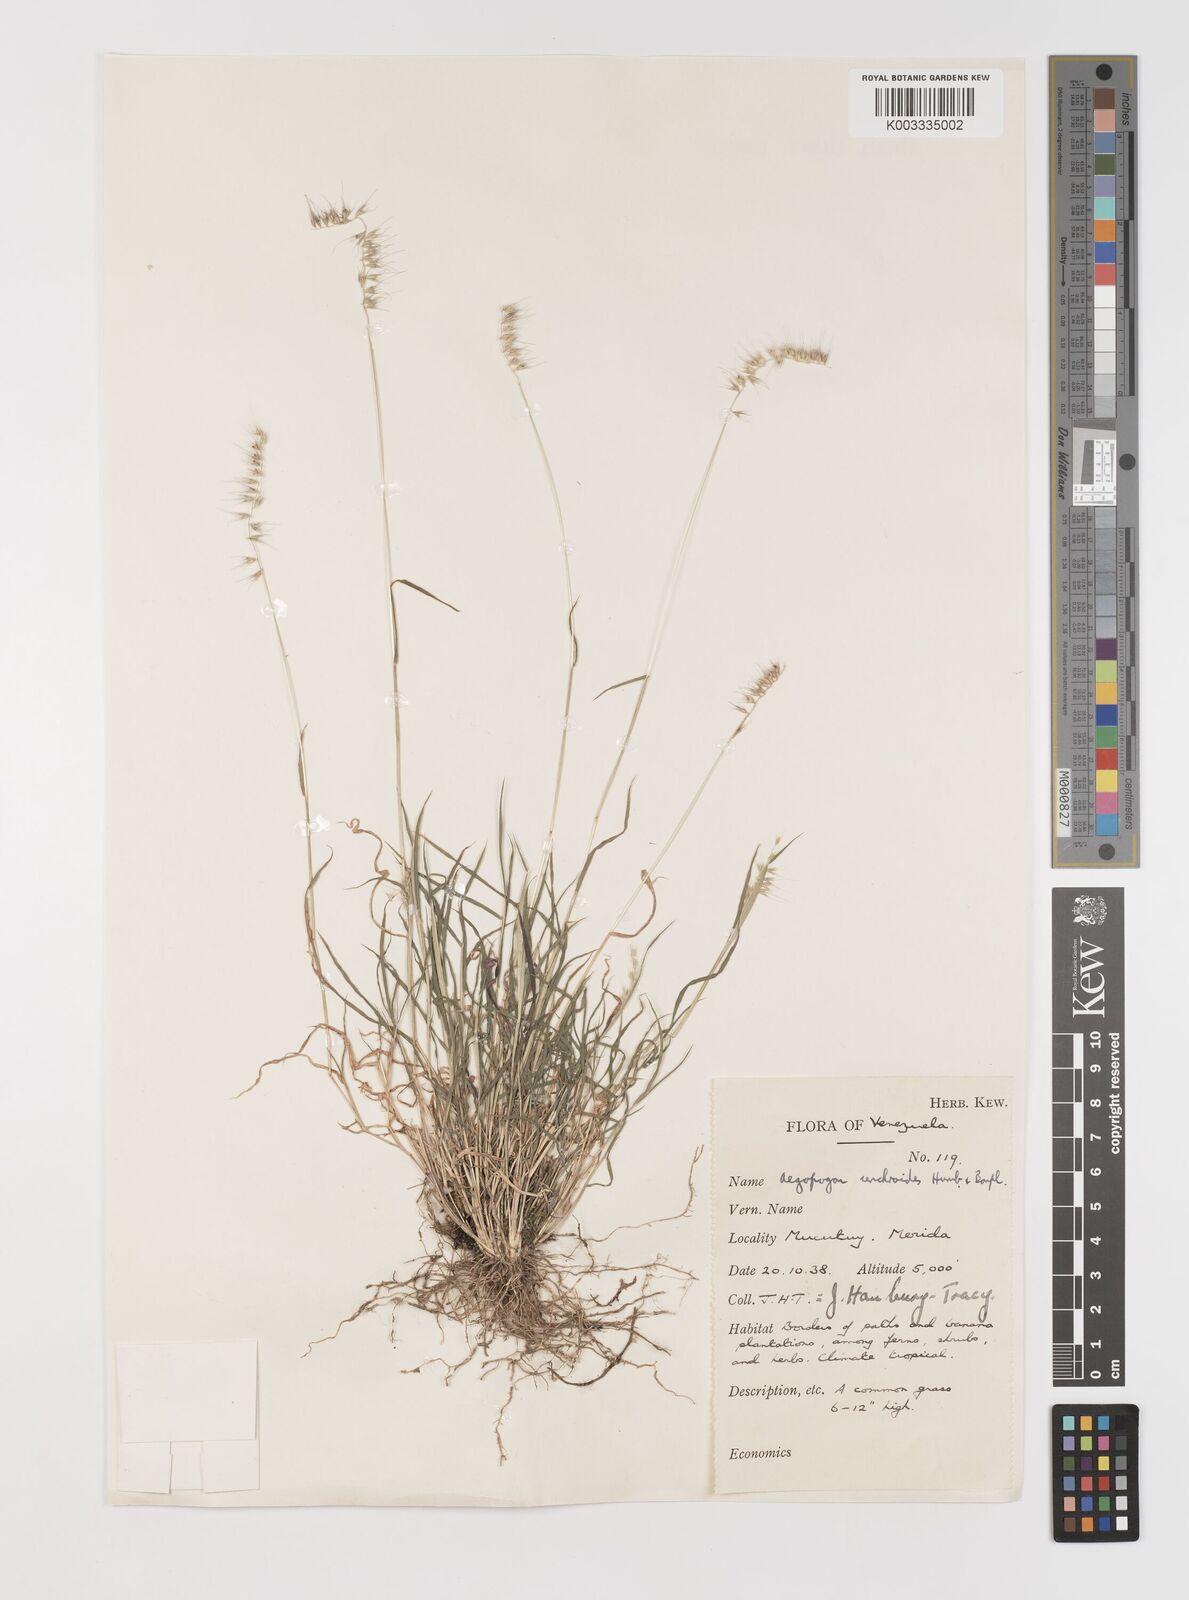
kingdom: Plantae
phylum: Tracheophyta
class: Liliopsida
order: Poales
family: Poaceae
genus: Muhlenbergia
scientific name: Muhlenbergia cenchroides
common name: Relaxgrass
